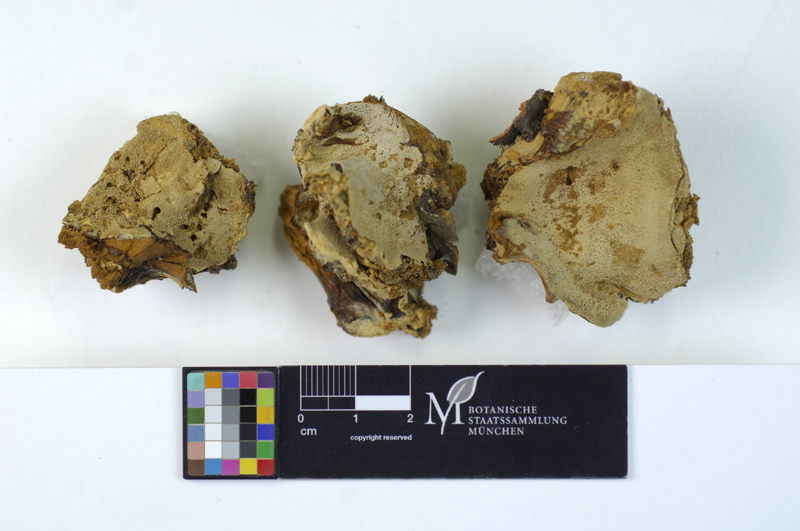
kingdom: Fungi
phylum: Basidiomycota
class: Agaricomycetes
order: Hymenochaetales
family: Hymenochaetaceae
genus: Inonotus
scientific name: Inonotus cuticularis
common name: Clustered bracket
